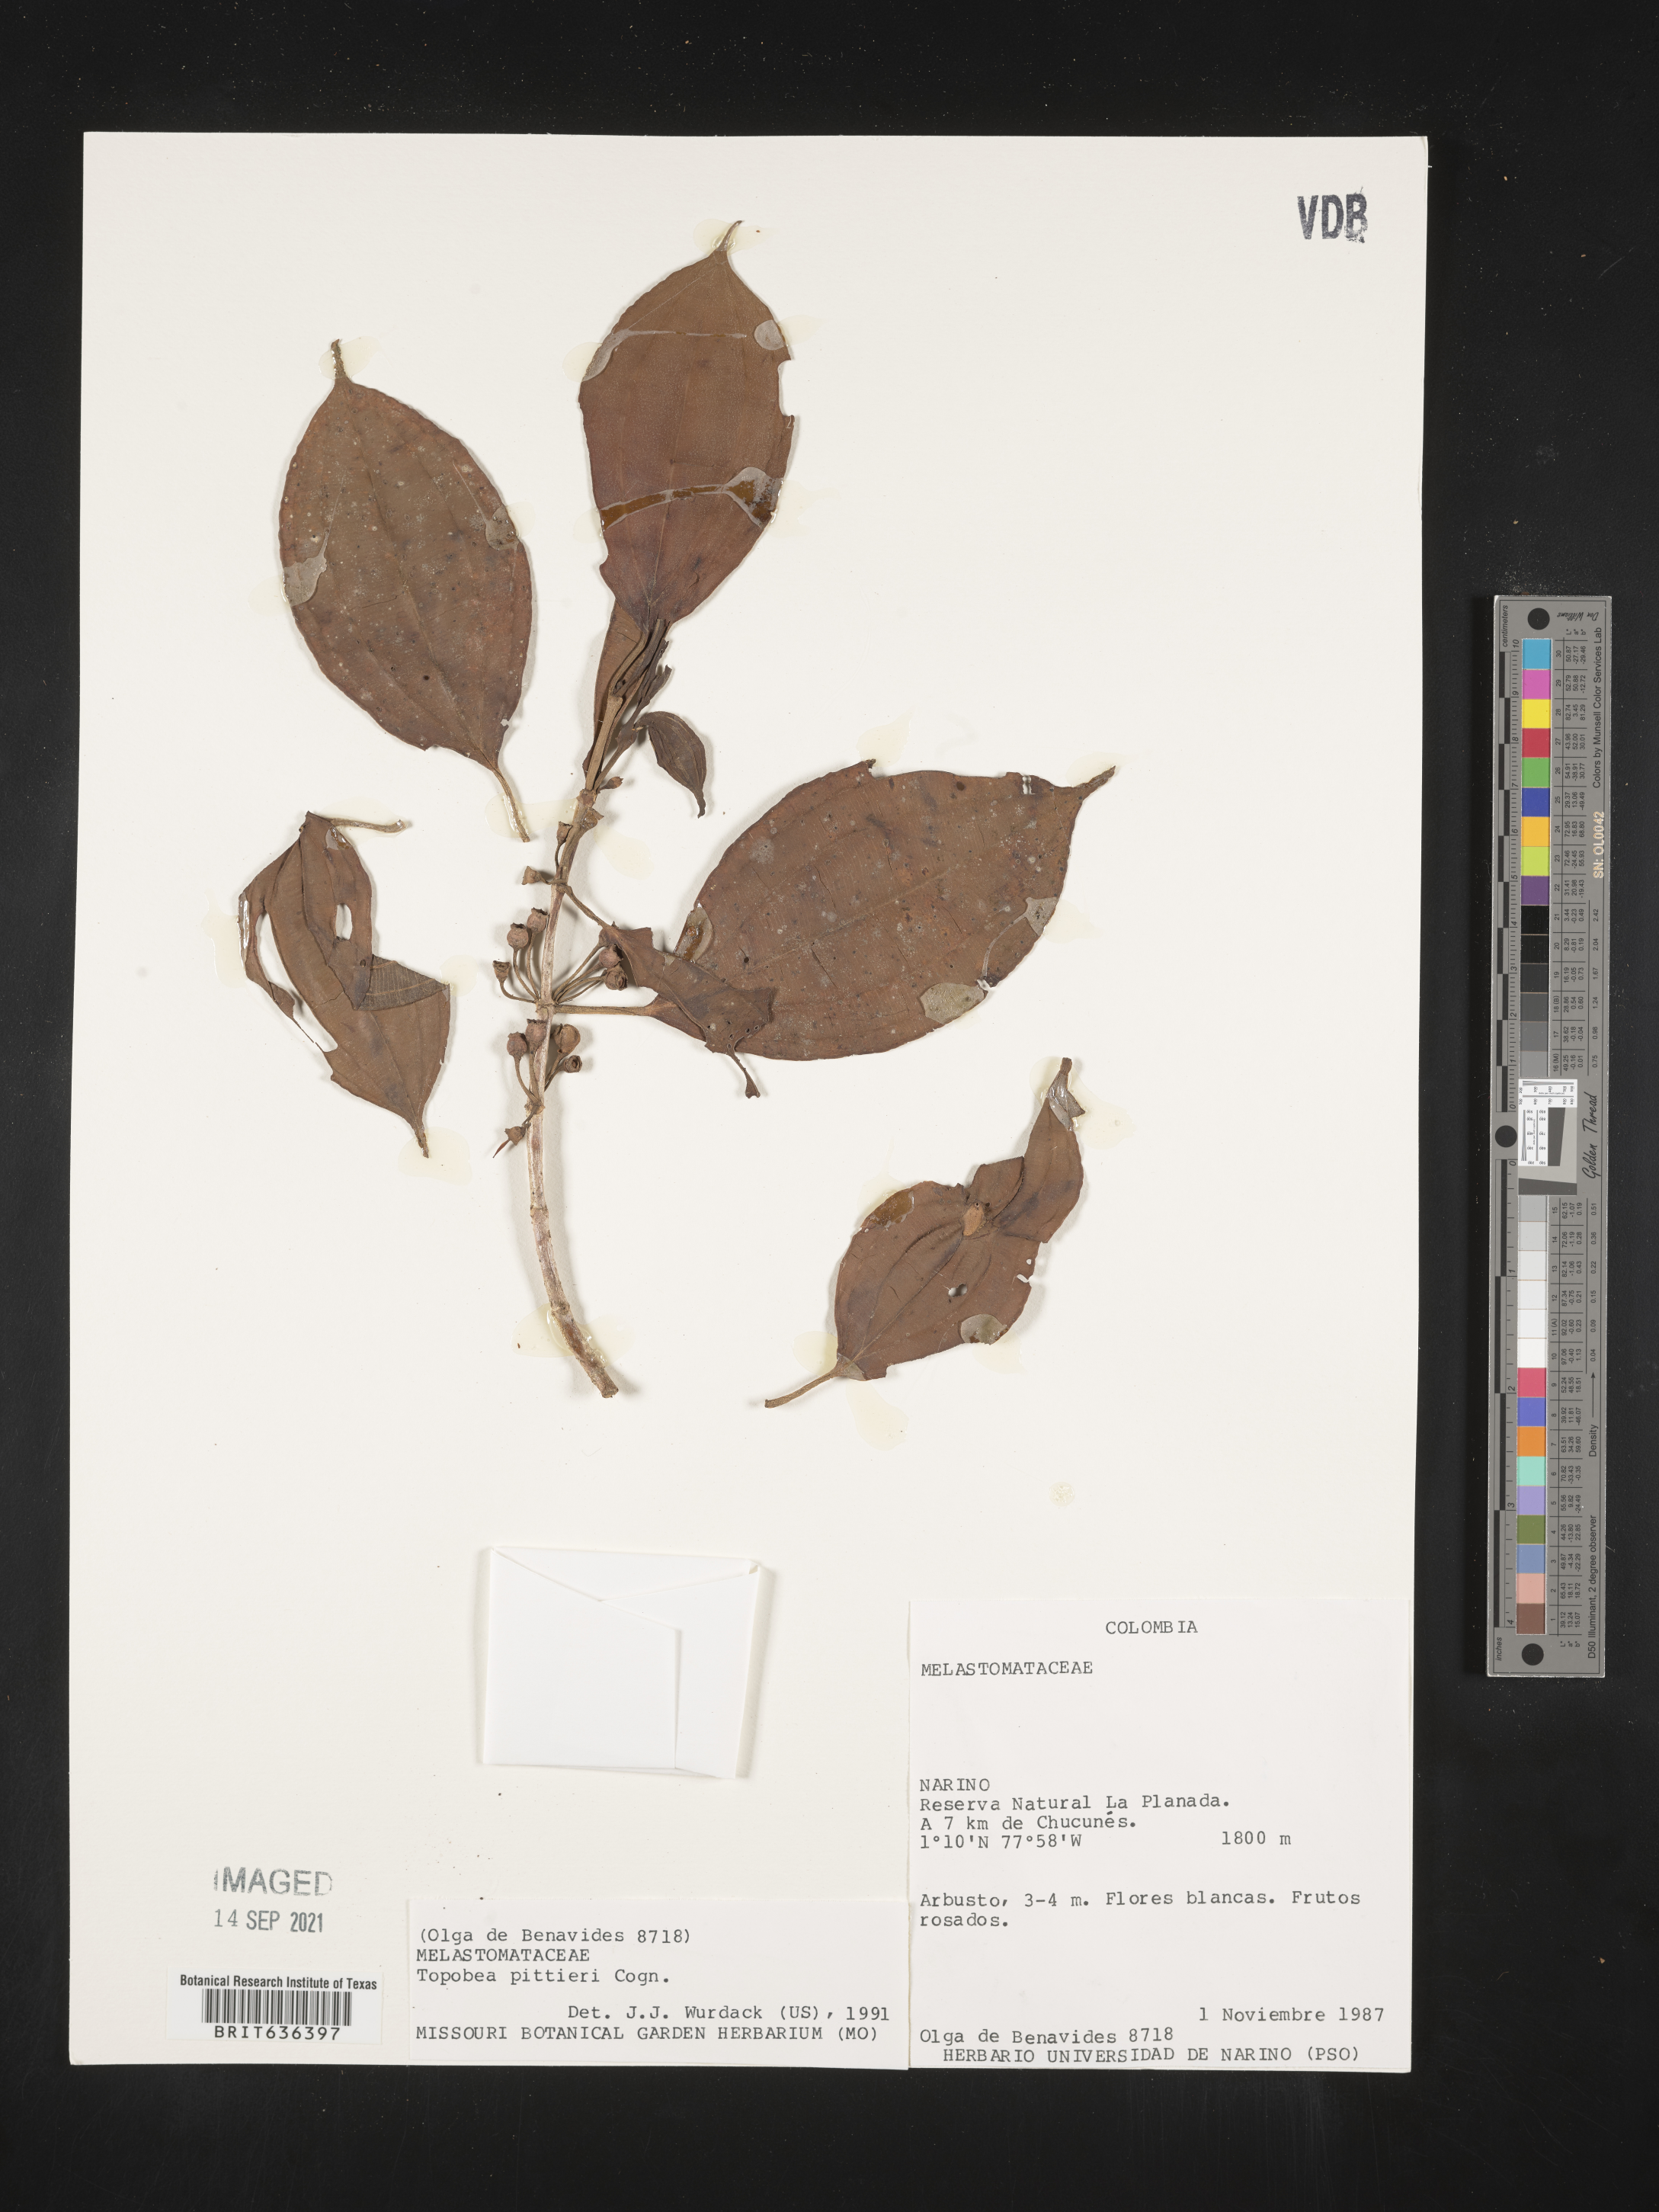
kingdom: Plantae
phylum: Tracheophyta
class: Magnoliopsida
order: Myrtales
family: Melastomataceae
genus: Blakea
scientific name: Blakea
